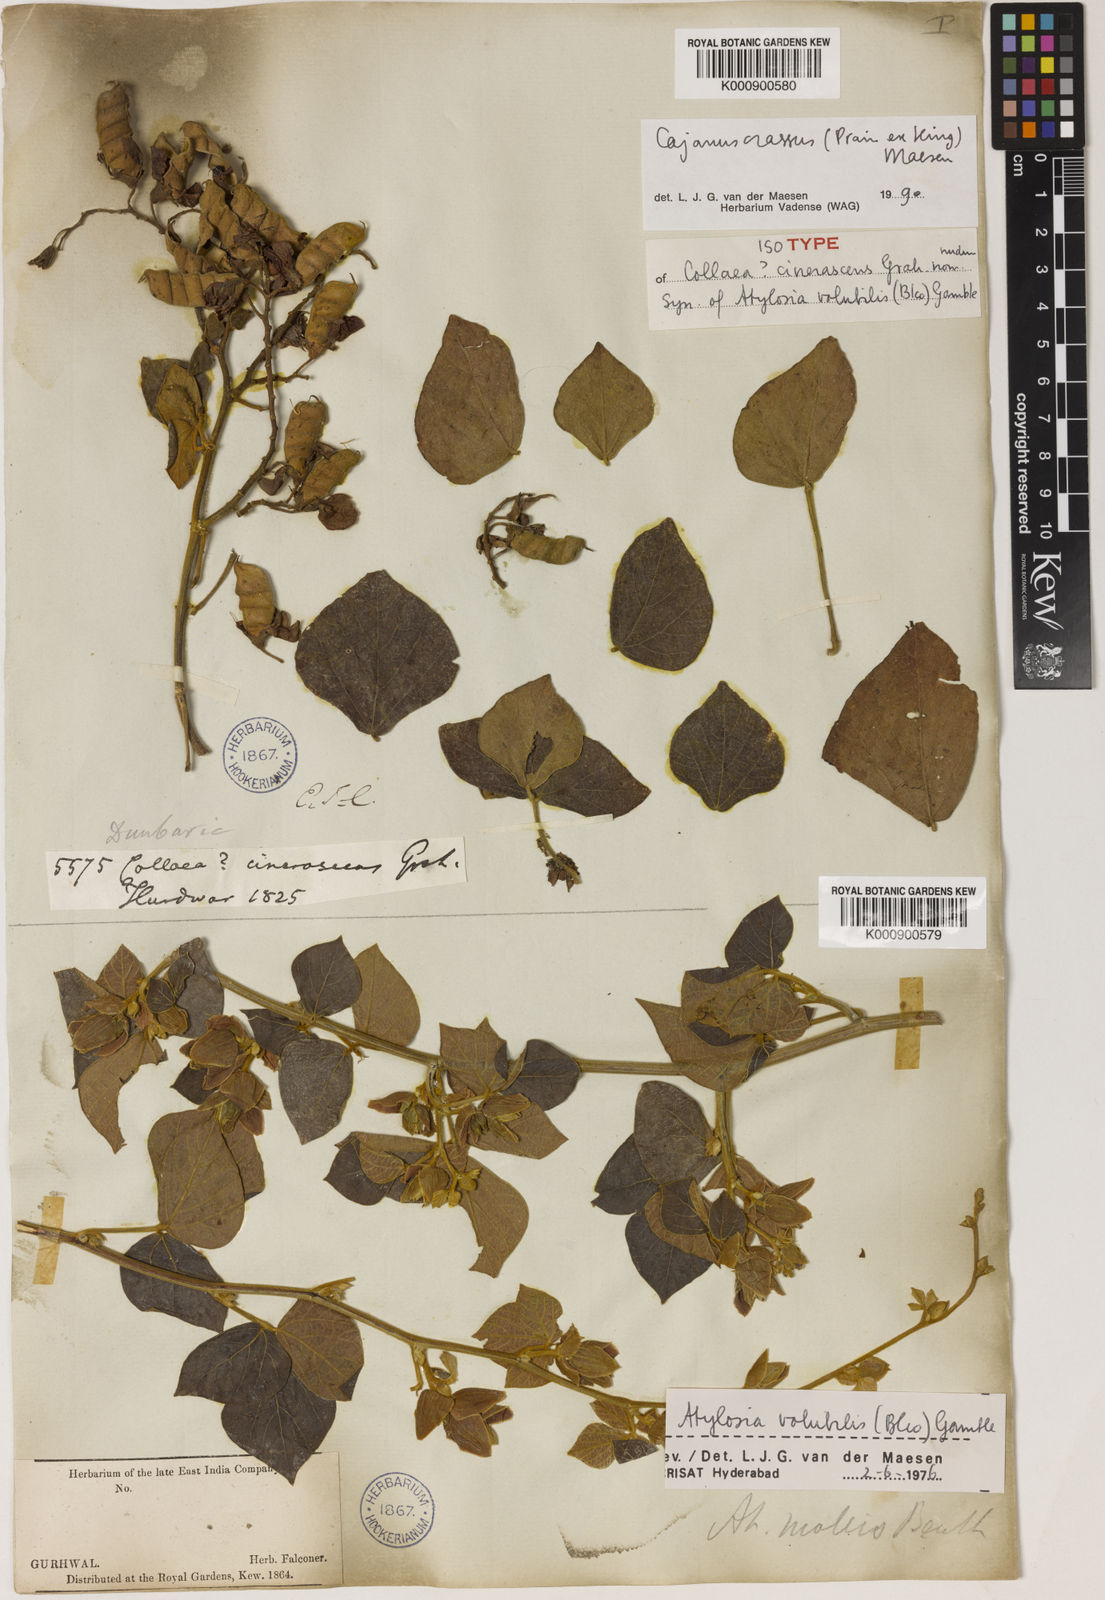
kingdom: Plantae
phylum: Tracheophyta
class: Magnoliopsida
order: Fabales
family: Fabaceae
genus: Cajanus
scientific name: Cajanus crassus
